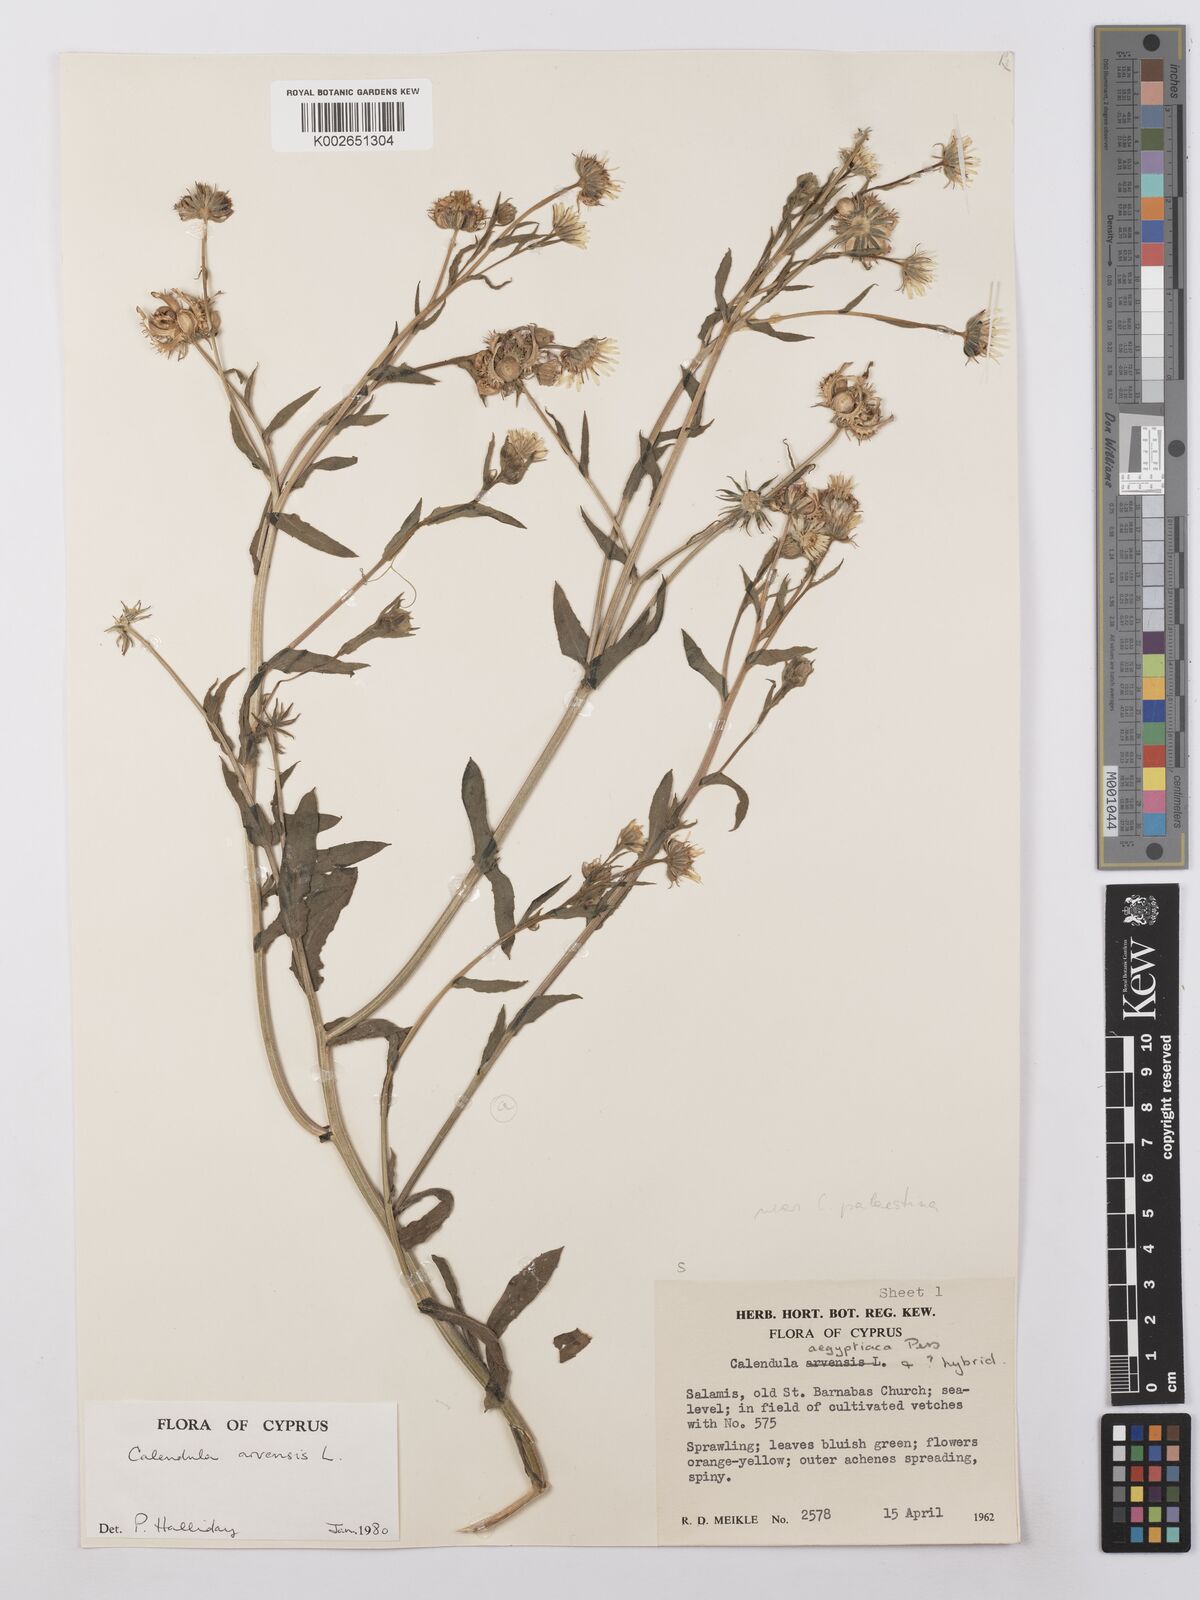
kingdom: Plantae
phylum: Tracheophyta
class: Magnoliopsida
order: Asterales
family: Asteraceae
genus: Calendula
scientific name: Calendula arvensis
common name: Field marigold
